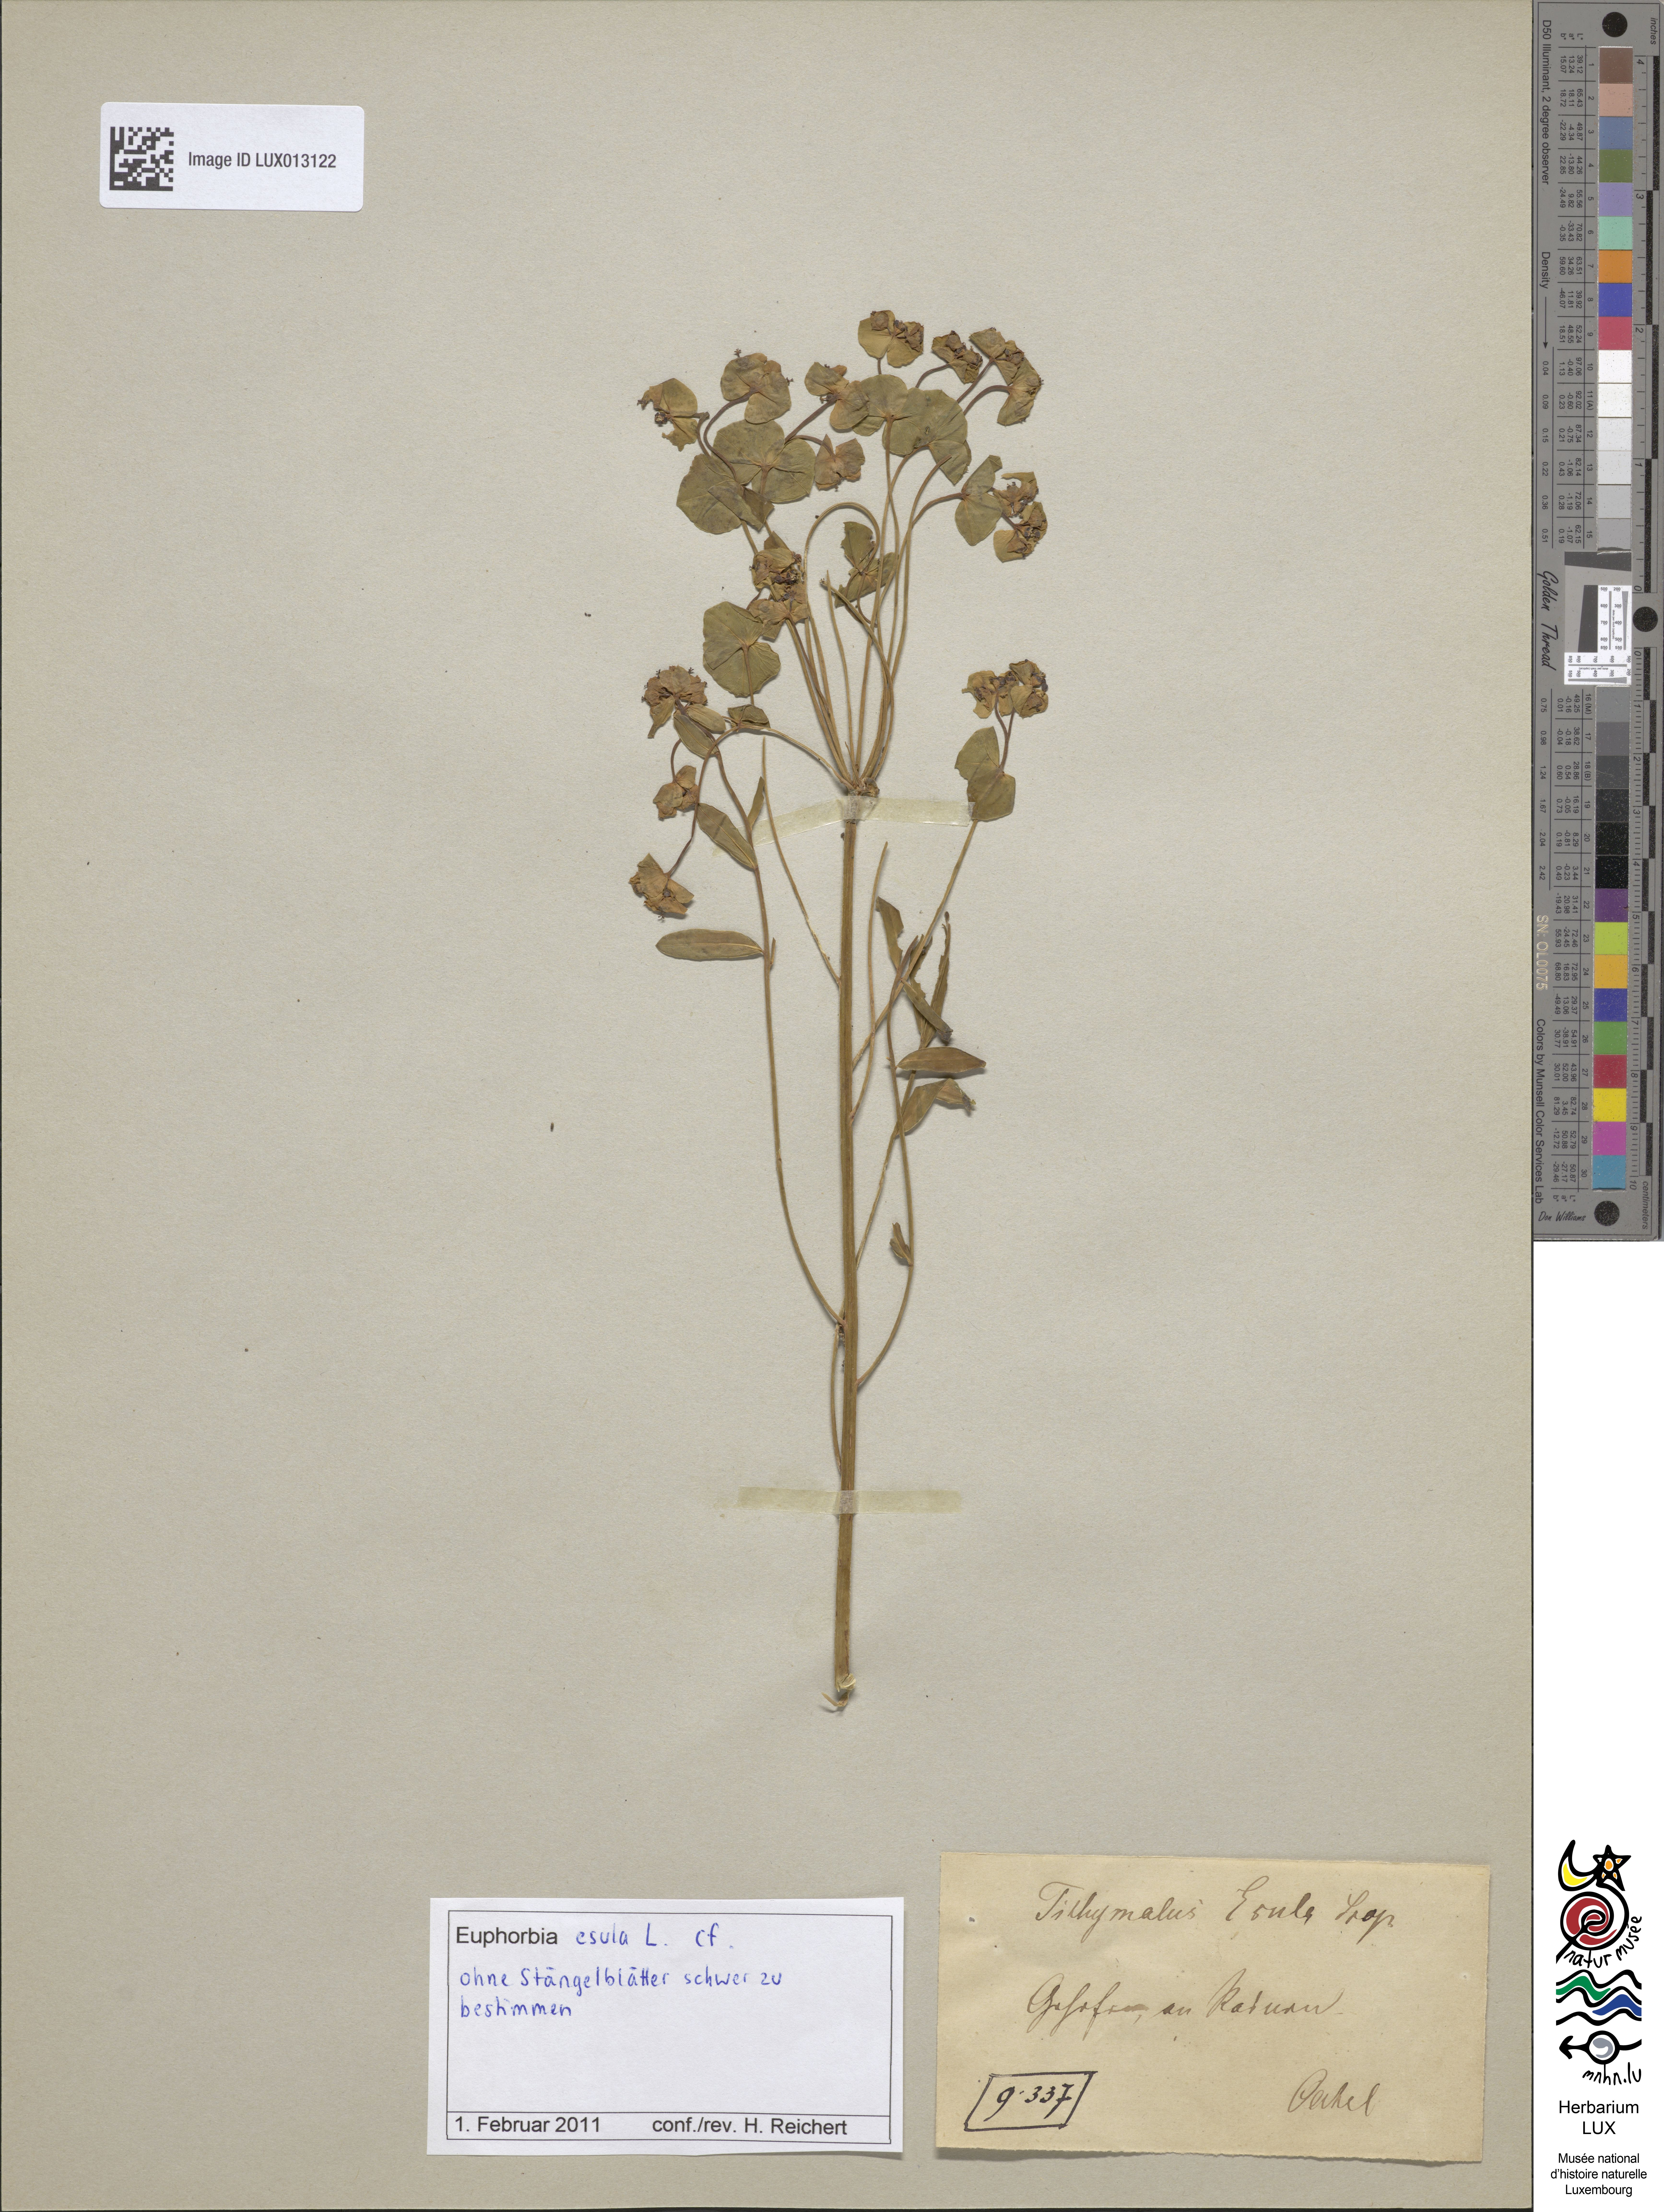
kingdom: Plantae
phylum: Tracheophyta
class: Magnoliopsida
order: Malpighiales
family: Euphorbiaceae
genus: Euphorbia
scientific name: Euphorbia esula
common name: Leafy spurge
